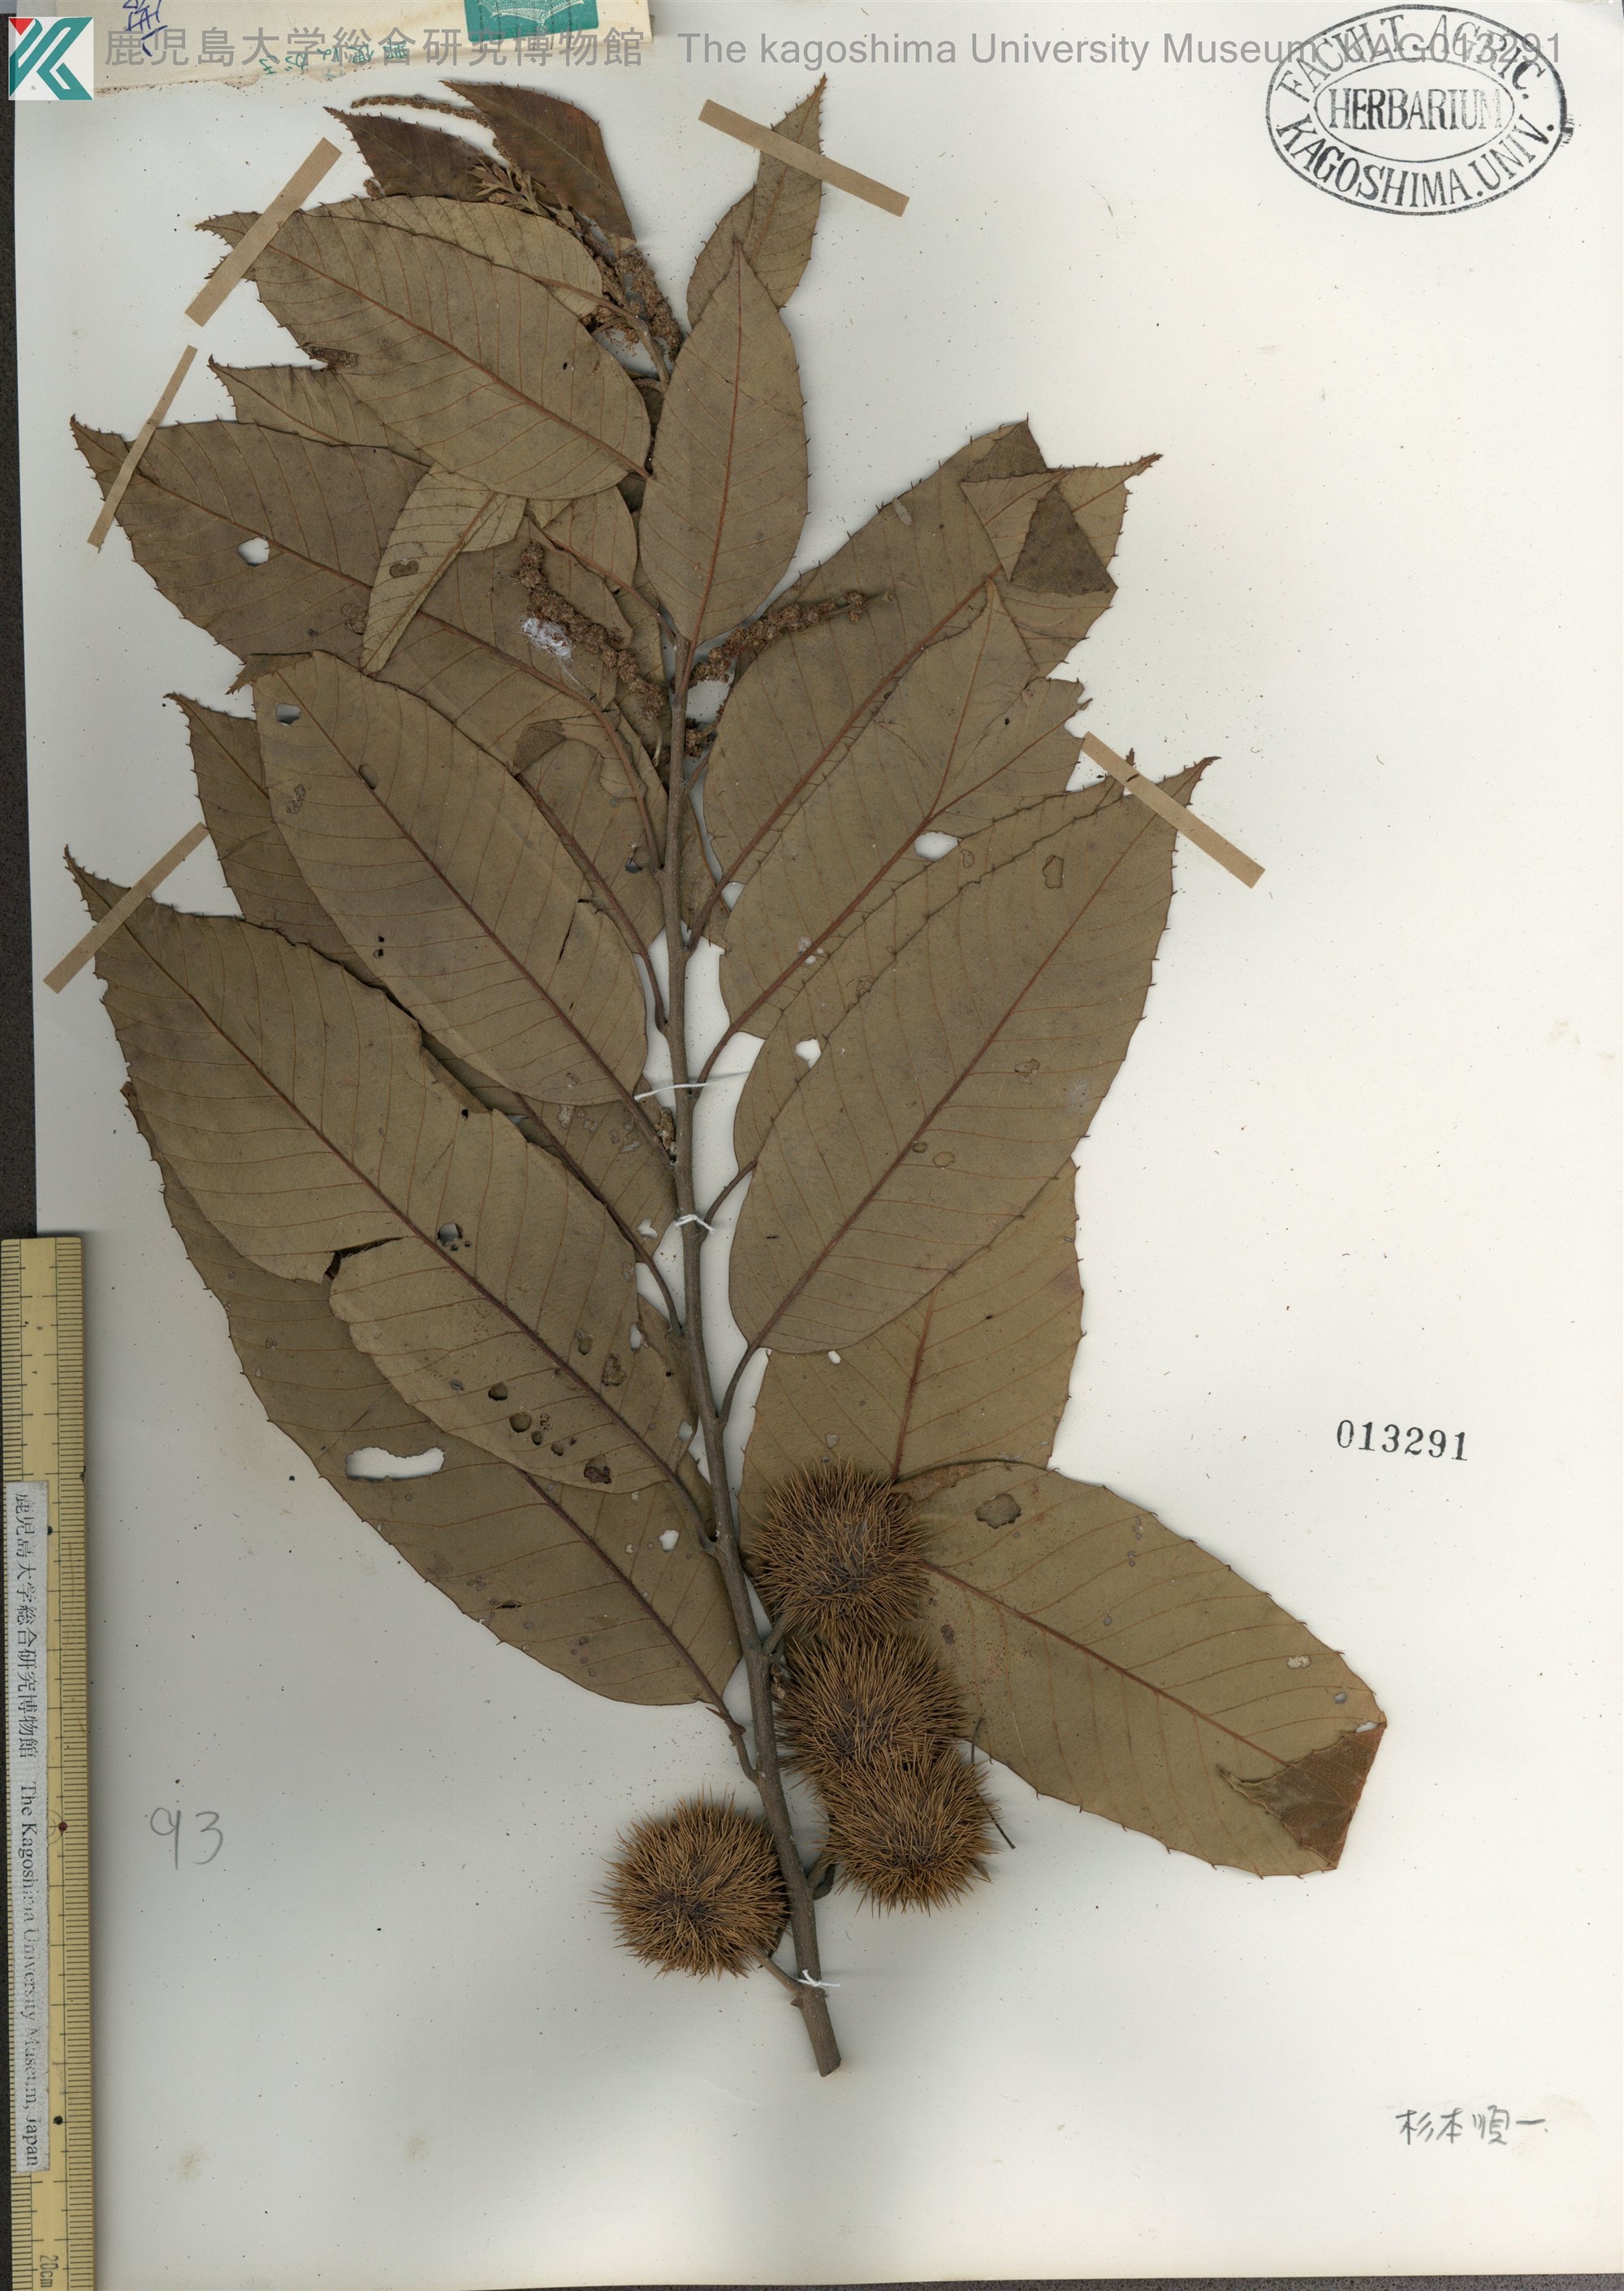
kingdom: Plantae
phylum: Tracheophyta
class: Magnoliopsida
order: Fagales
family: Fagaceae
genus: Castanea
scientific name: Castanea
